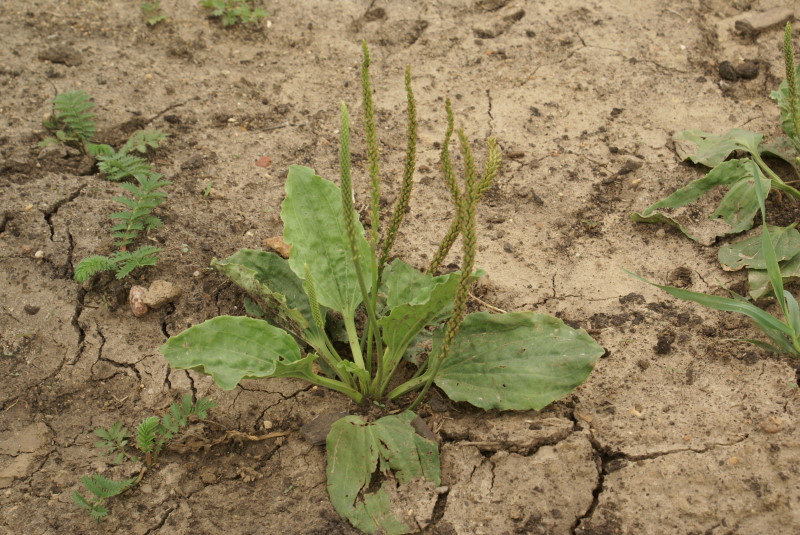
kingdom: Plantae
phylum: Tracheophyta
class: Magnoliopsida
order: Lamiales
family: Plantaginaceae
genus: Plantago
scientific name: Plantago major
